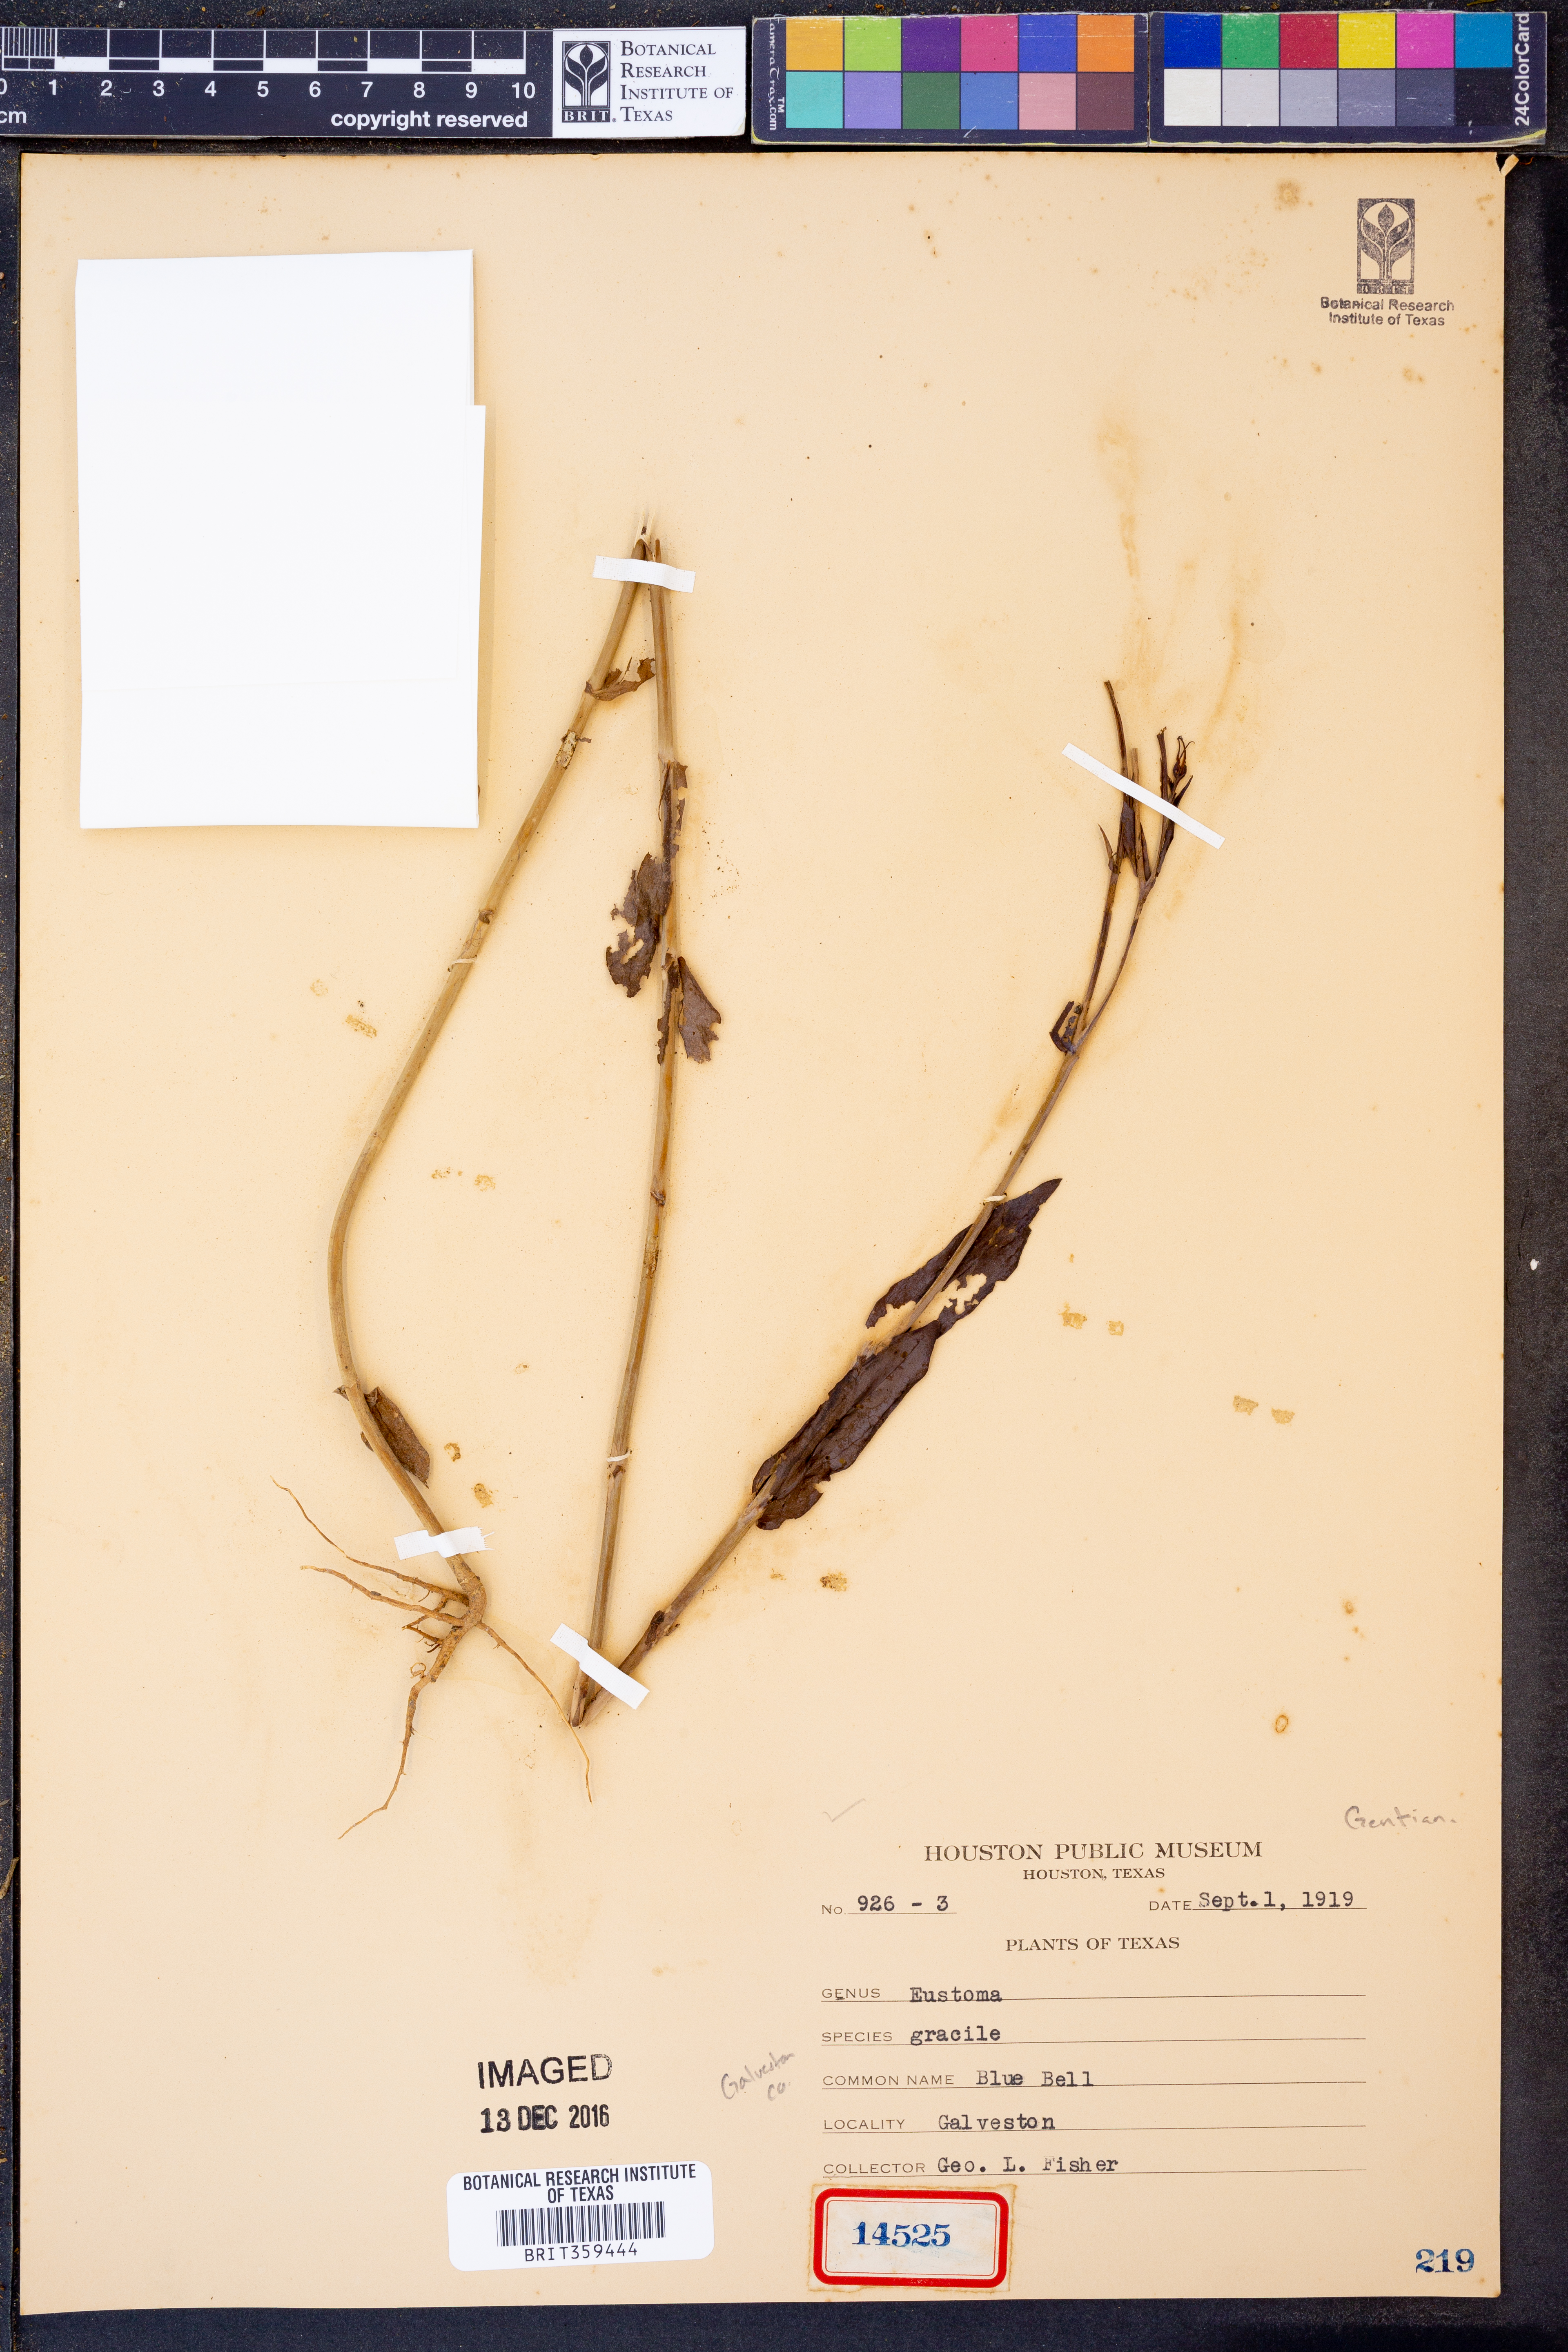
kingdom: Plantae
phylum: Tracheophyta
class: Magnoliopsida
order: Gentianales
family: Gentianaceae
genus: Eustoma
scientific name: Eustoma russellianum
